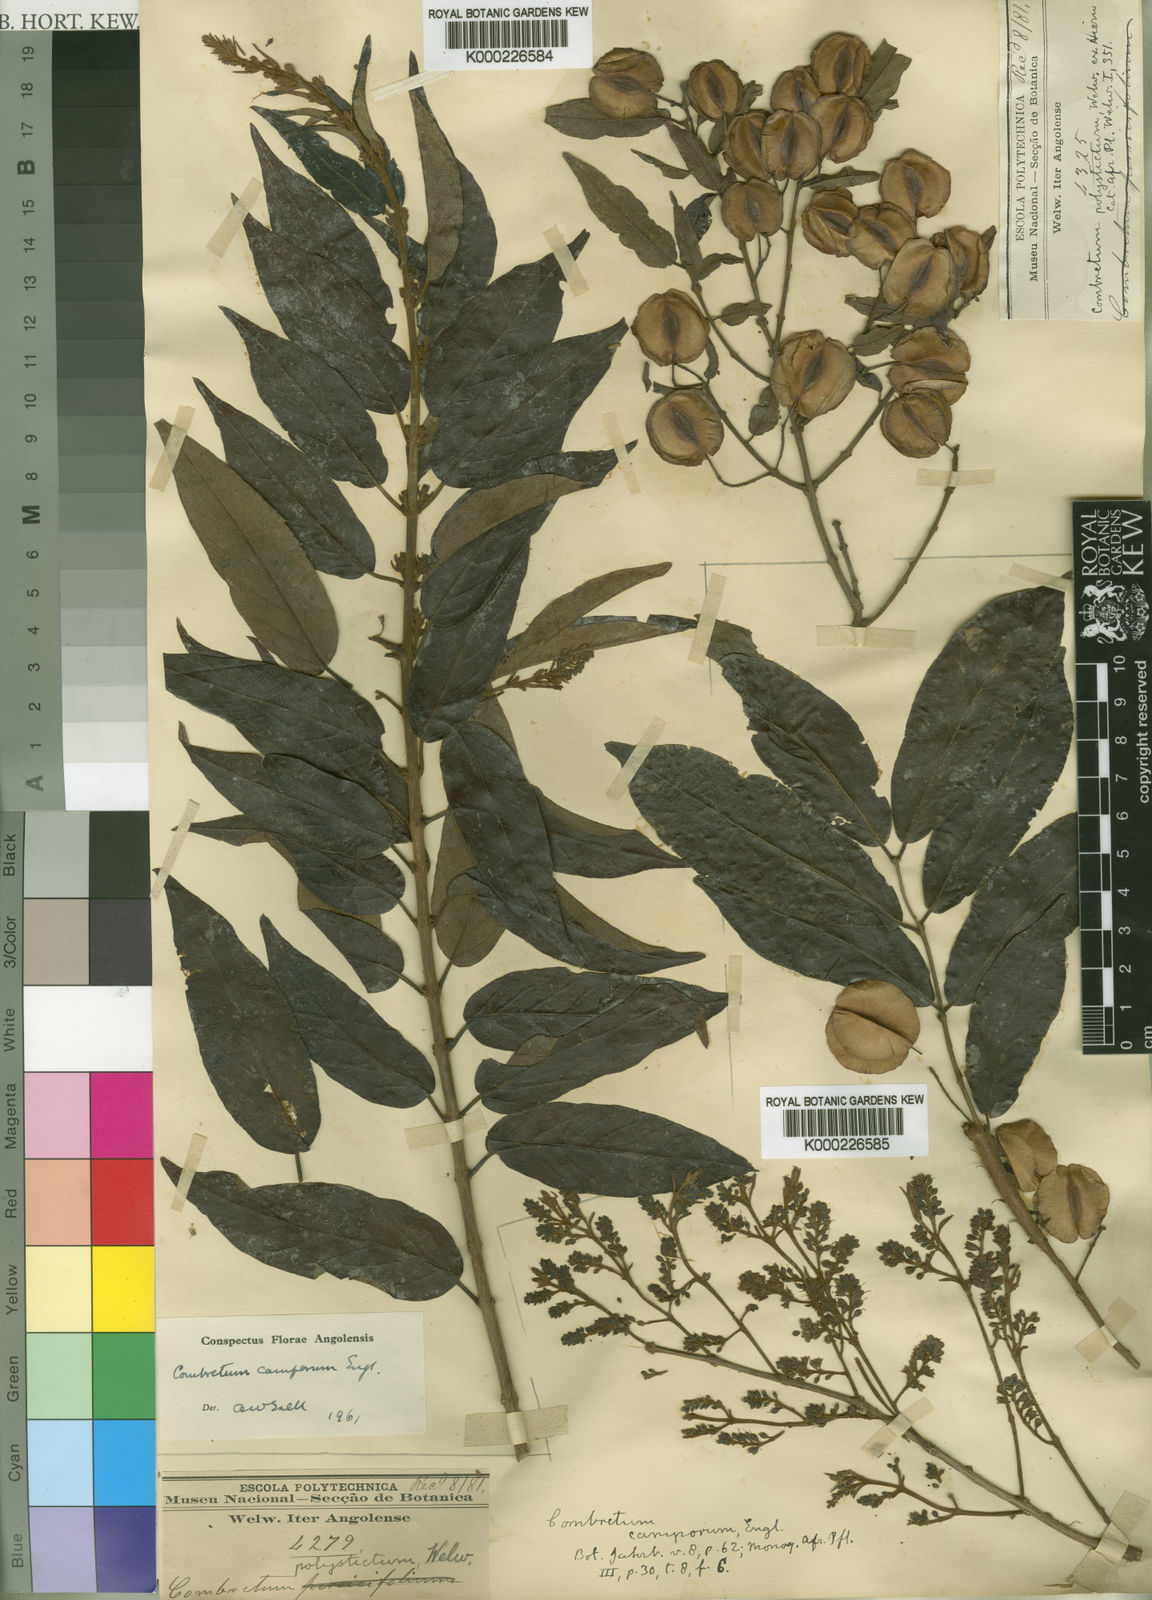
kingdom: Plantae
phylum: Tracheophyta
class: Magnoliopsida
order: Myrtales
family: Combretaceae
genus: Combretum
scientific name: Combretum camporum
